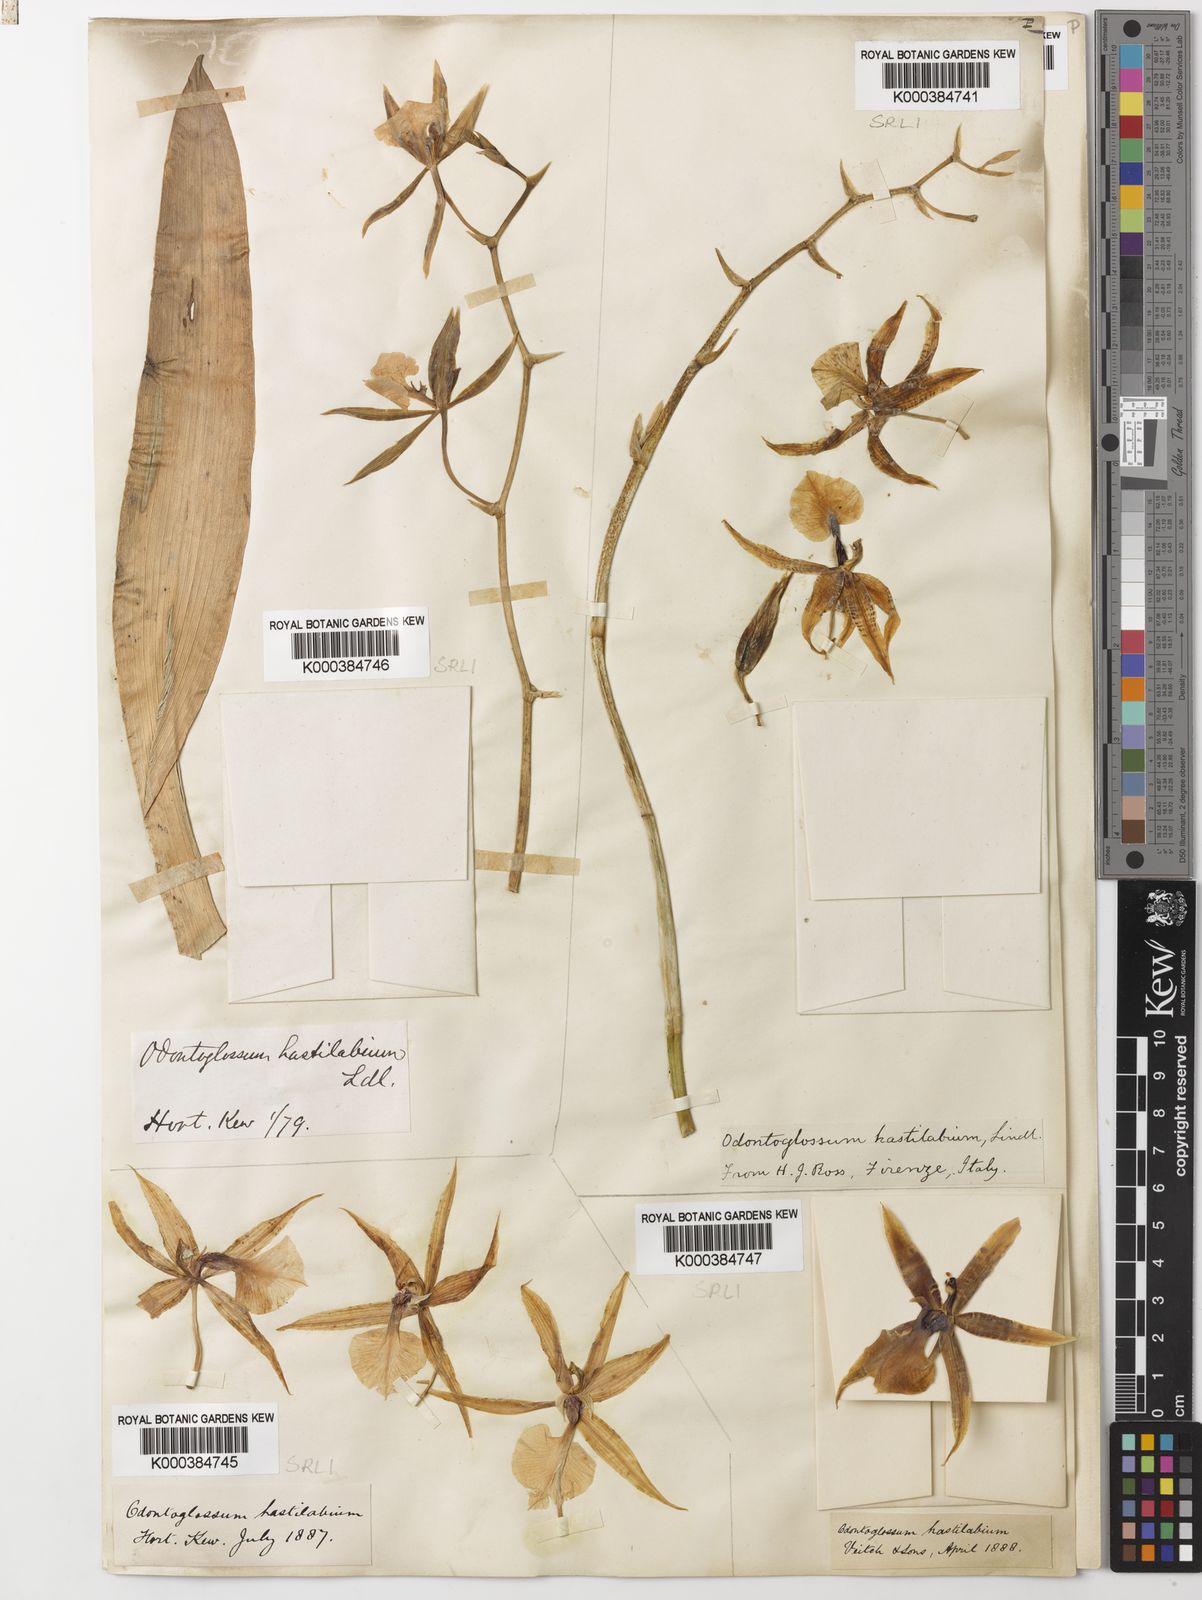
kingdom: Plantae
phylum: Tracheophyta
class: Liliopsida
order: Asparagales
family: Orchidaceae
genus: Oncidium
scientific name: Oncidium hastilabium
